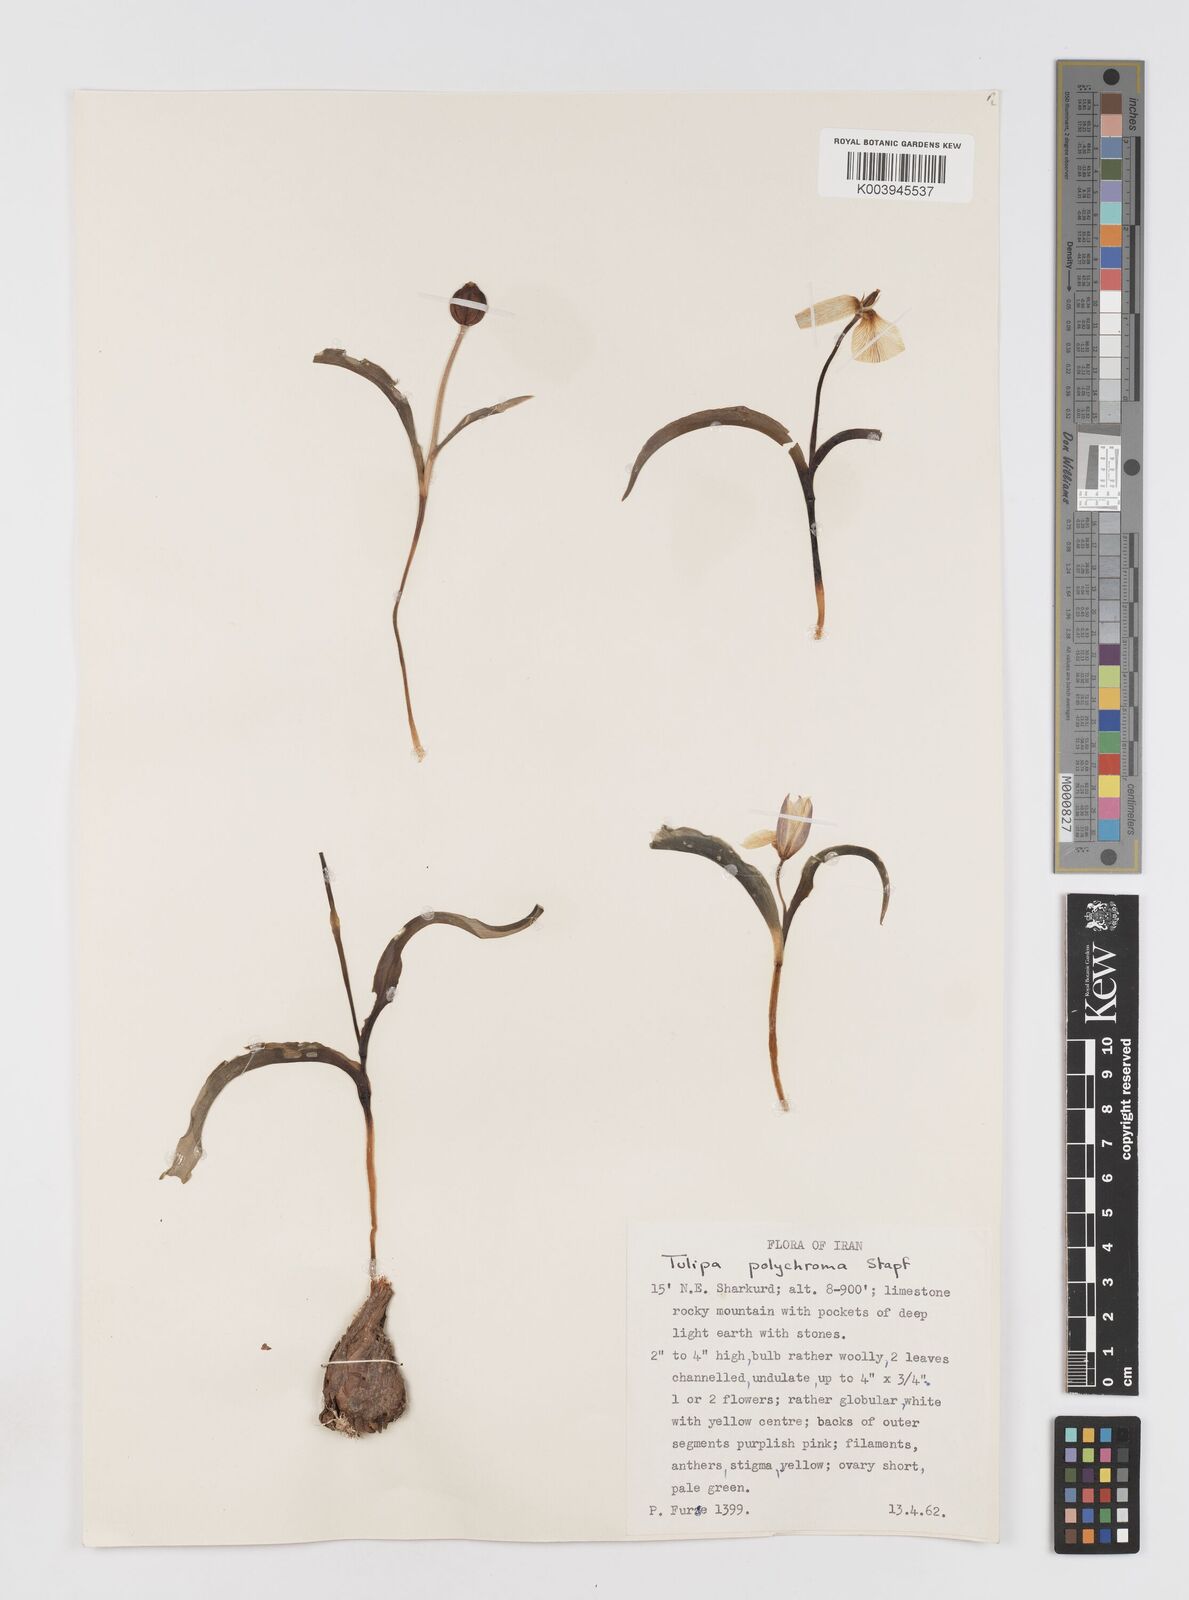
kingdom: Plantae
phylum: Tracheophyta
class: Liliopsida
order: Liliales
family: Liliaceae
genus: Tulipa
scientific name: Tulipa biflora
